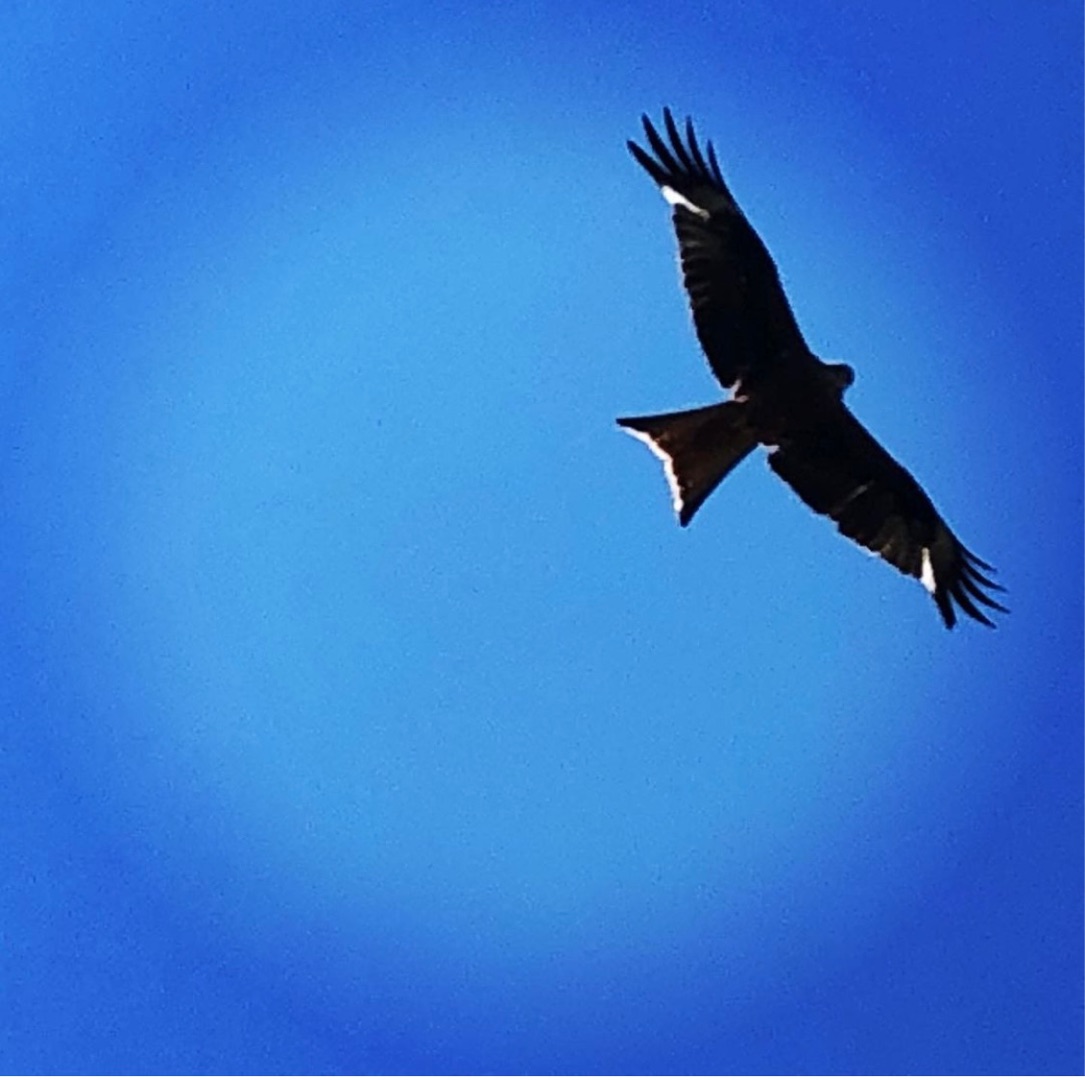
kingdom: Animalia
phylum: Chordata
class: Aves
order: Accipitriformes
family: Accipitridae
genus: Milvus
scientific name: Milvus milvus
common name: Rød glente
